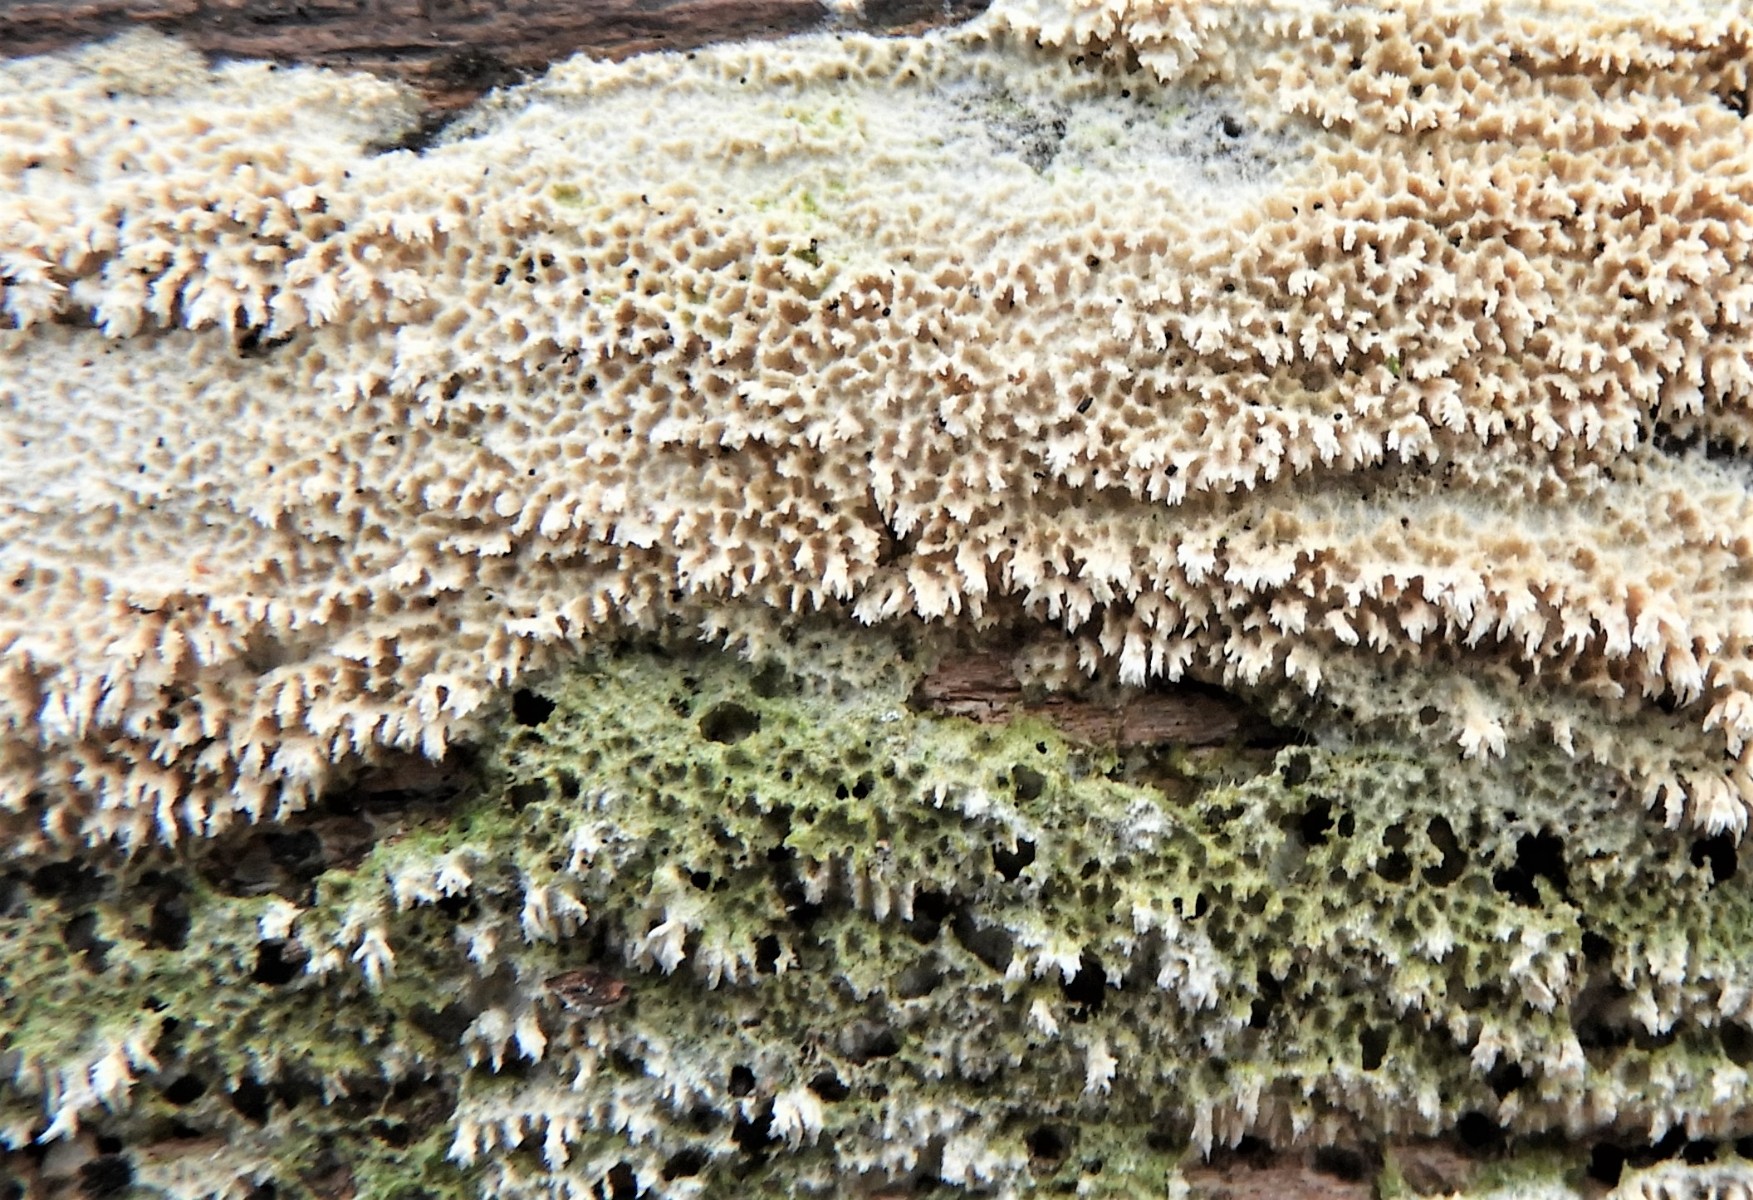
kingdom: Fungi
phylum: Basidiomycota
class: Agaricomycetes
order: Hymenochaetales
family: Schizoporaceae
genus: Schizopora
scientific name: Schizopora paradoxa
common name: hvid tandsvamp
